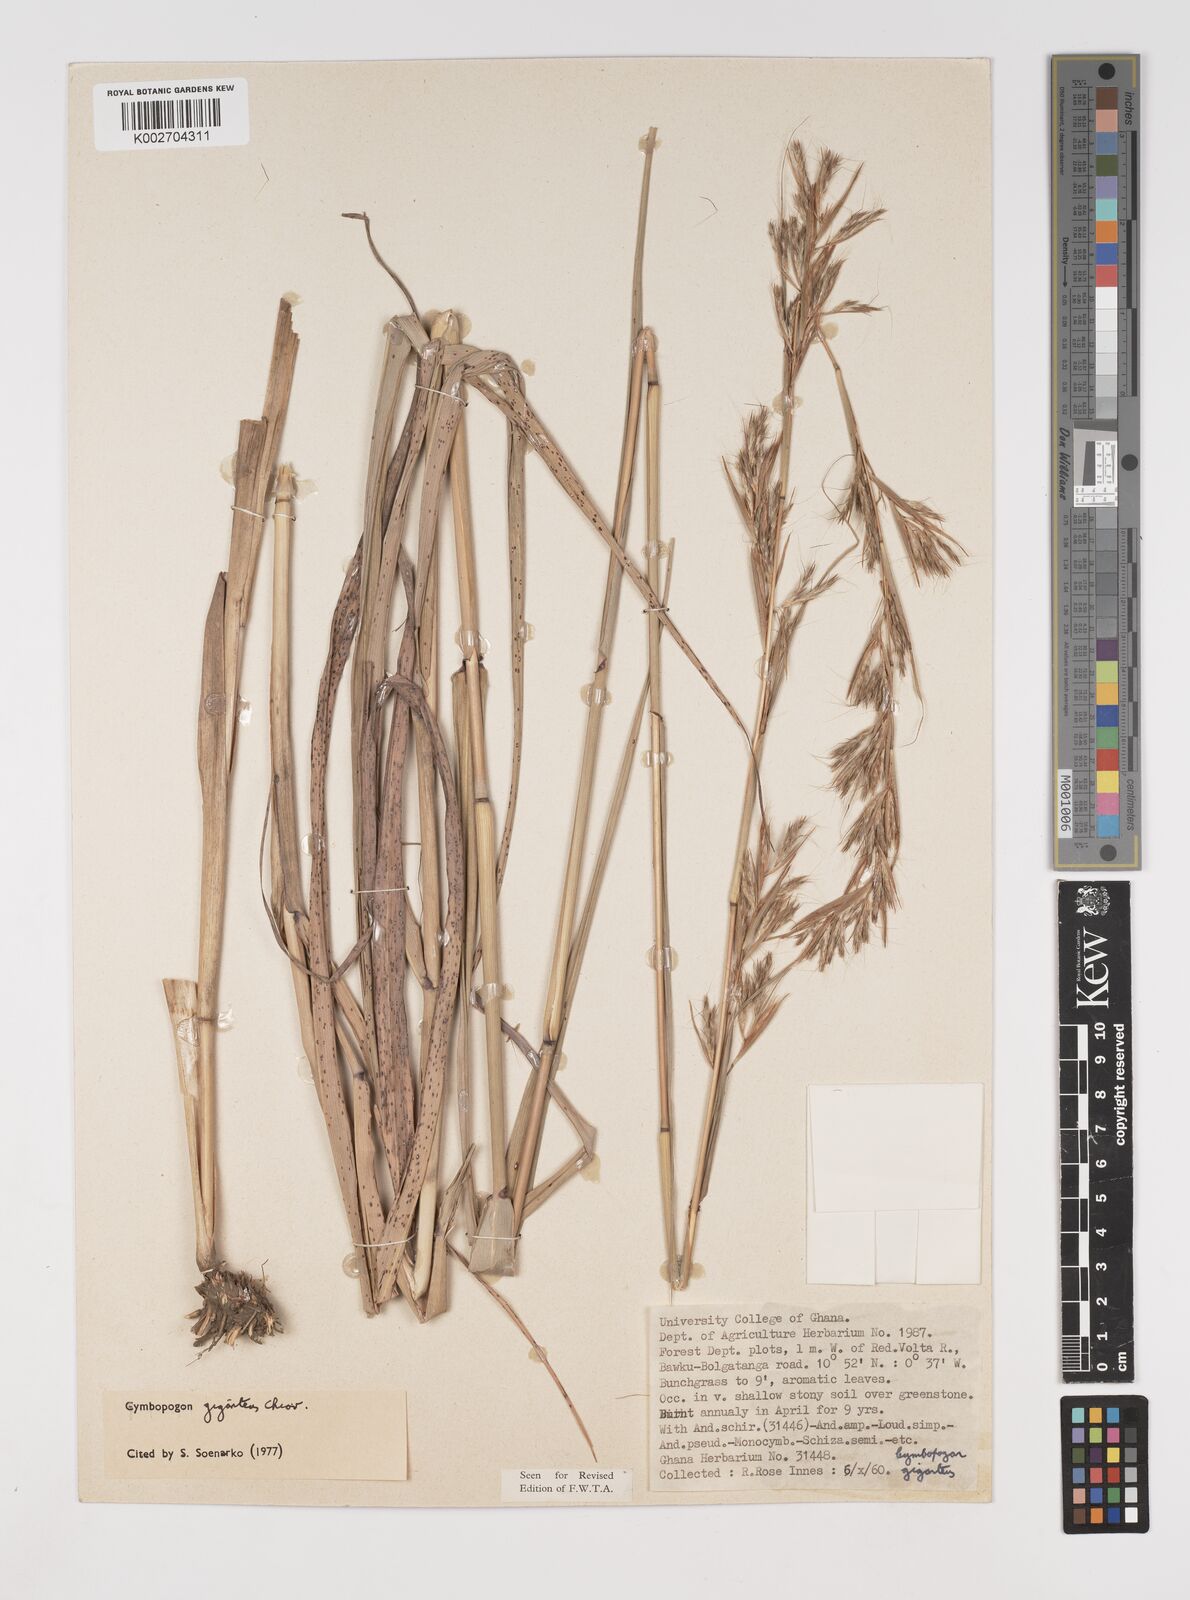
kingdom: Plantae
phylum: Tracheophyta
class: Liliopsida
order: Poales
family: Poaceae
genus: Cymbopogon
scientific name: Cymbopogon giganteus
